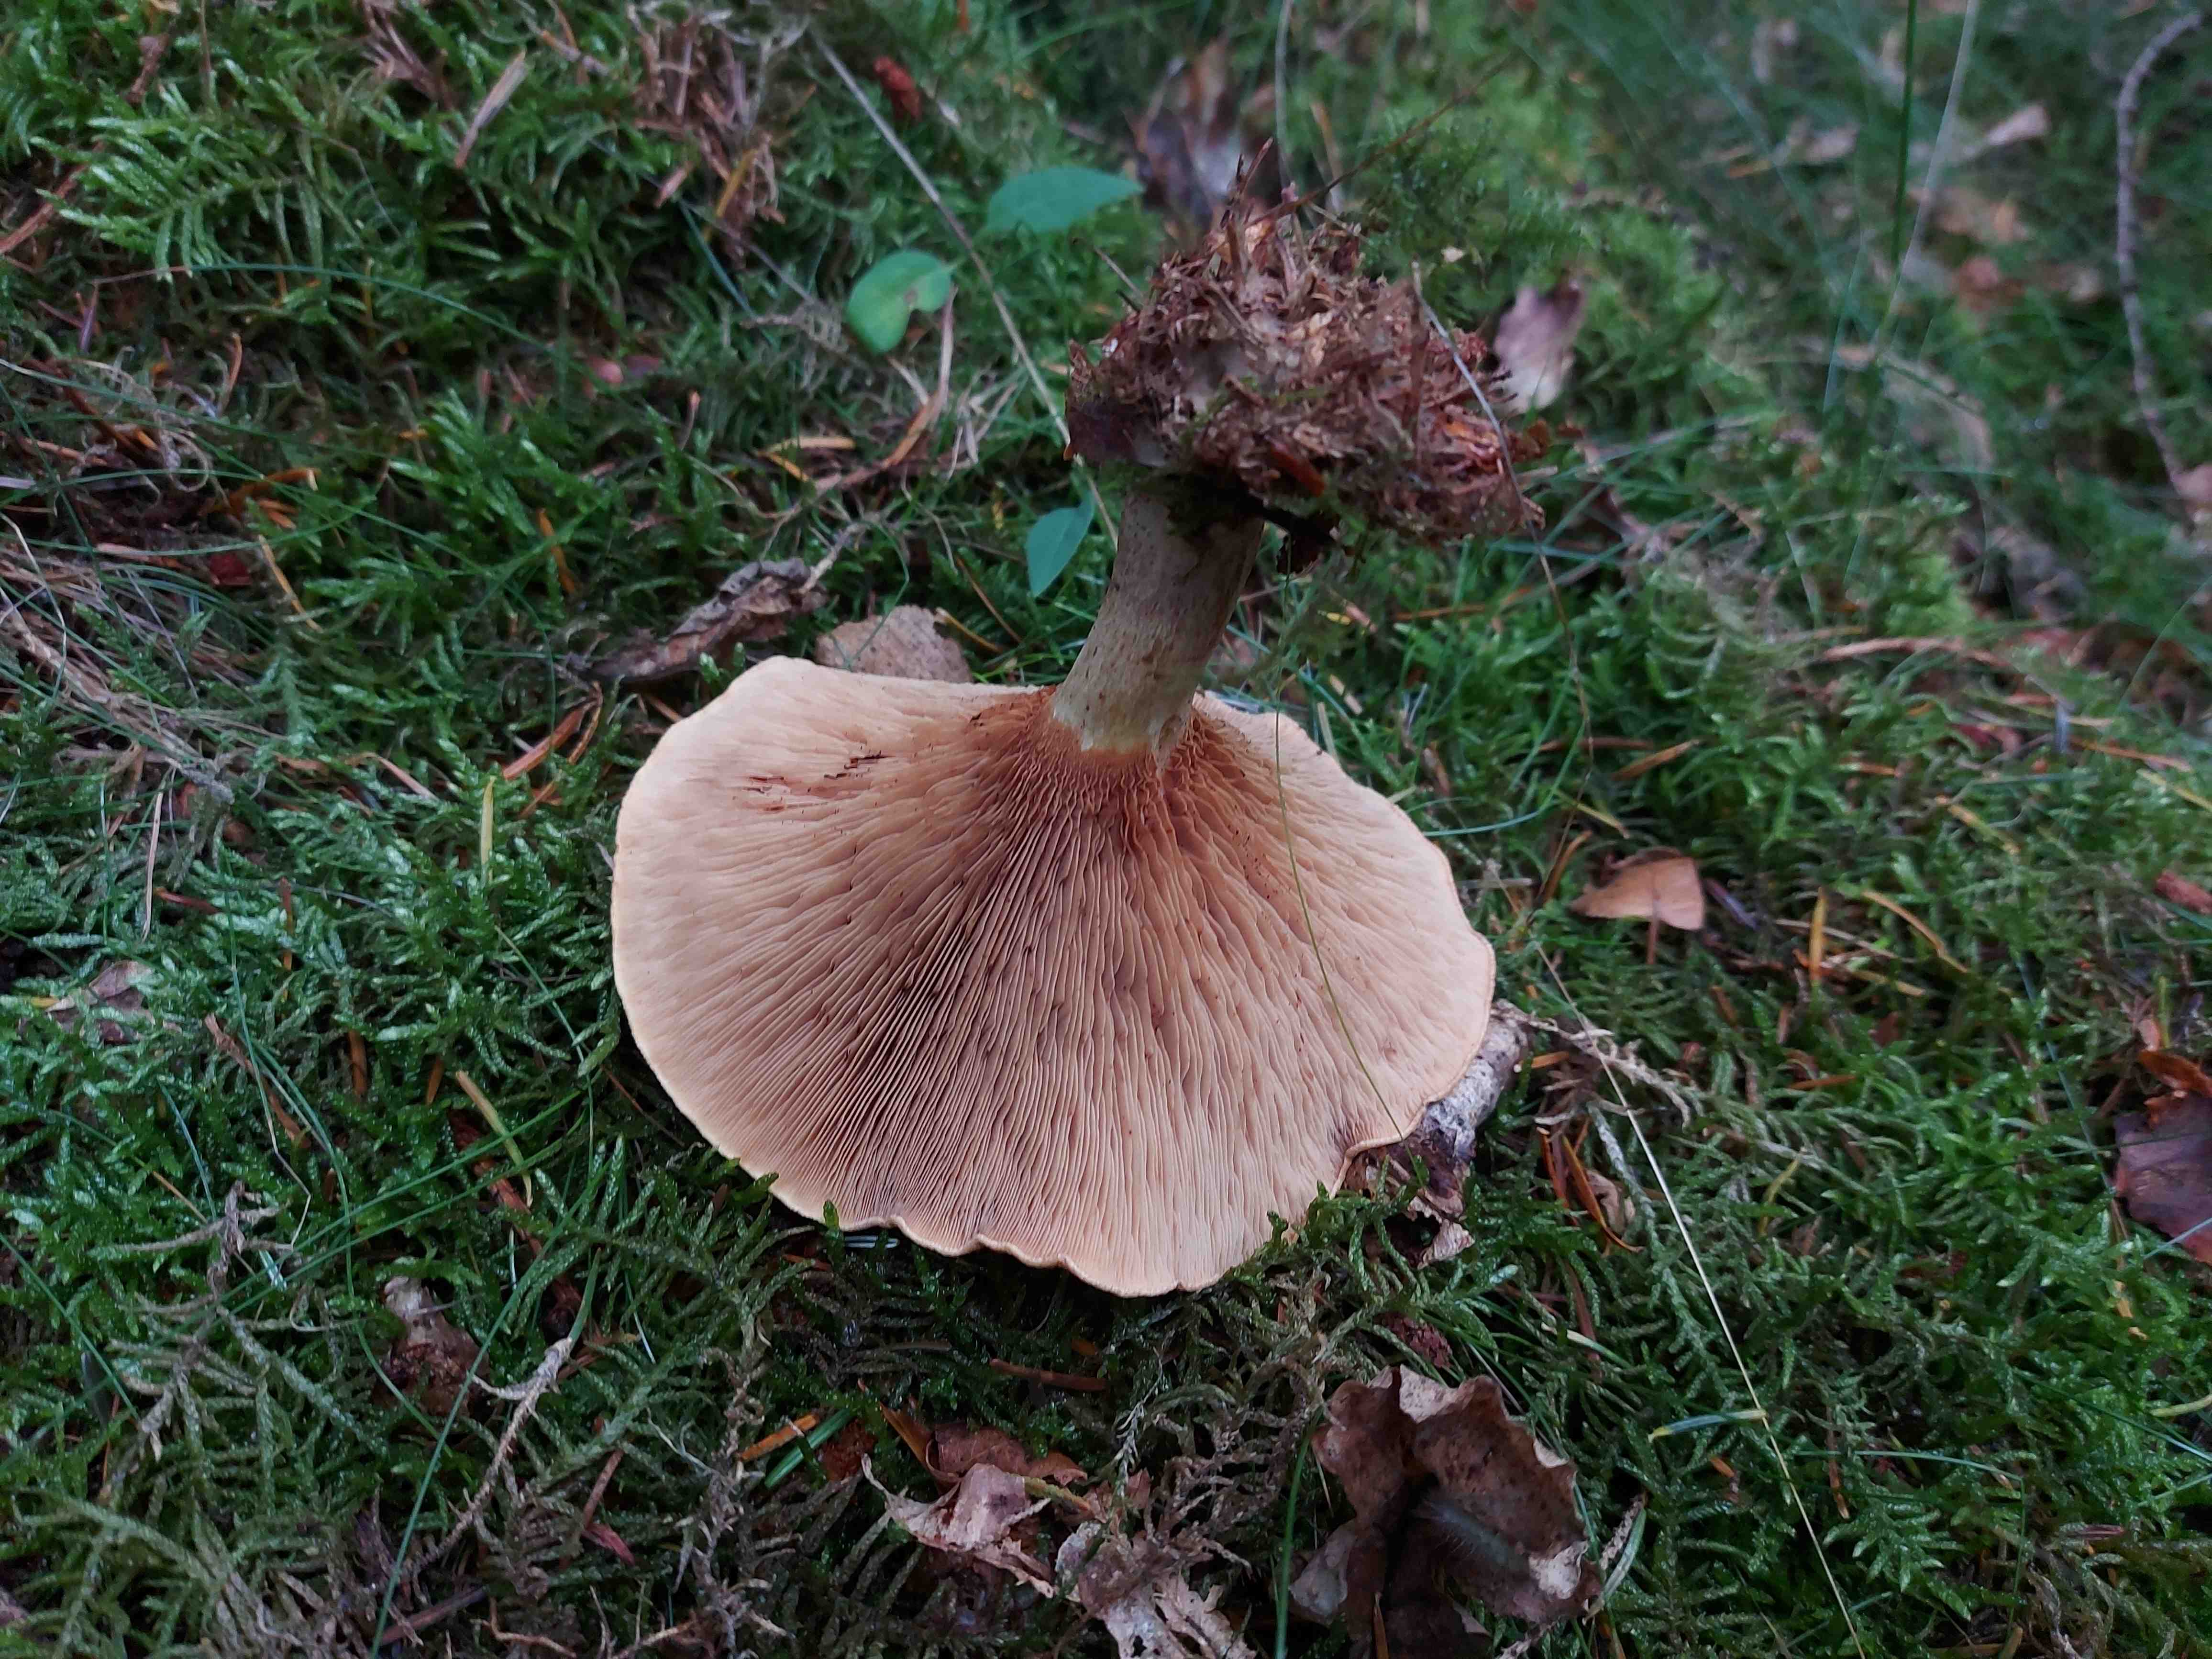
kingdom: Fungi
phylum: Basidiomycota
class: Agaricomycetes
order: Boletales
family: Paxillaceae
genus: Paxillus
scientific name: Paxillus involutus
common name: almindelig netbladhat
